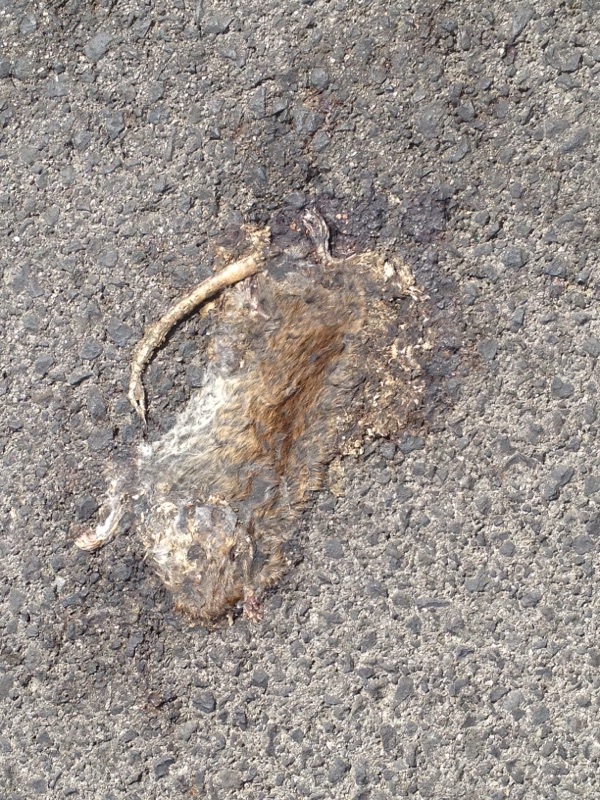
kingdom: Animalia
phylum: Chordata
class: Mammalia
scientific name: Mammalia
